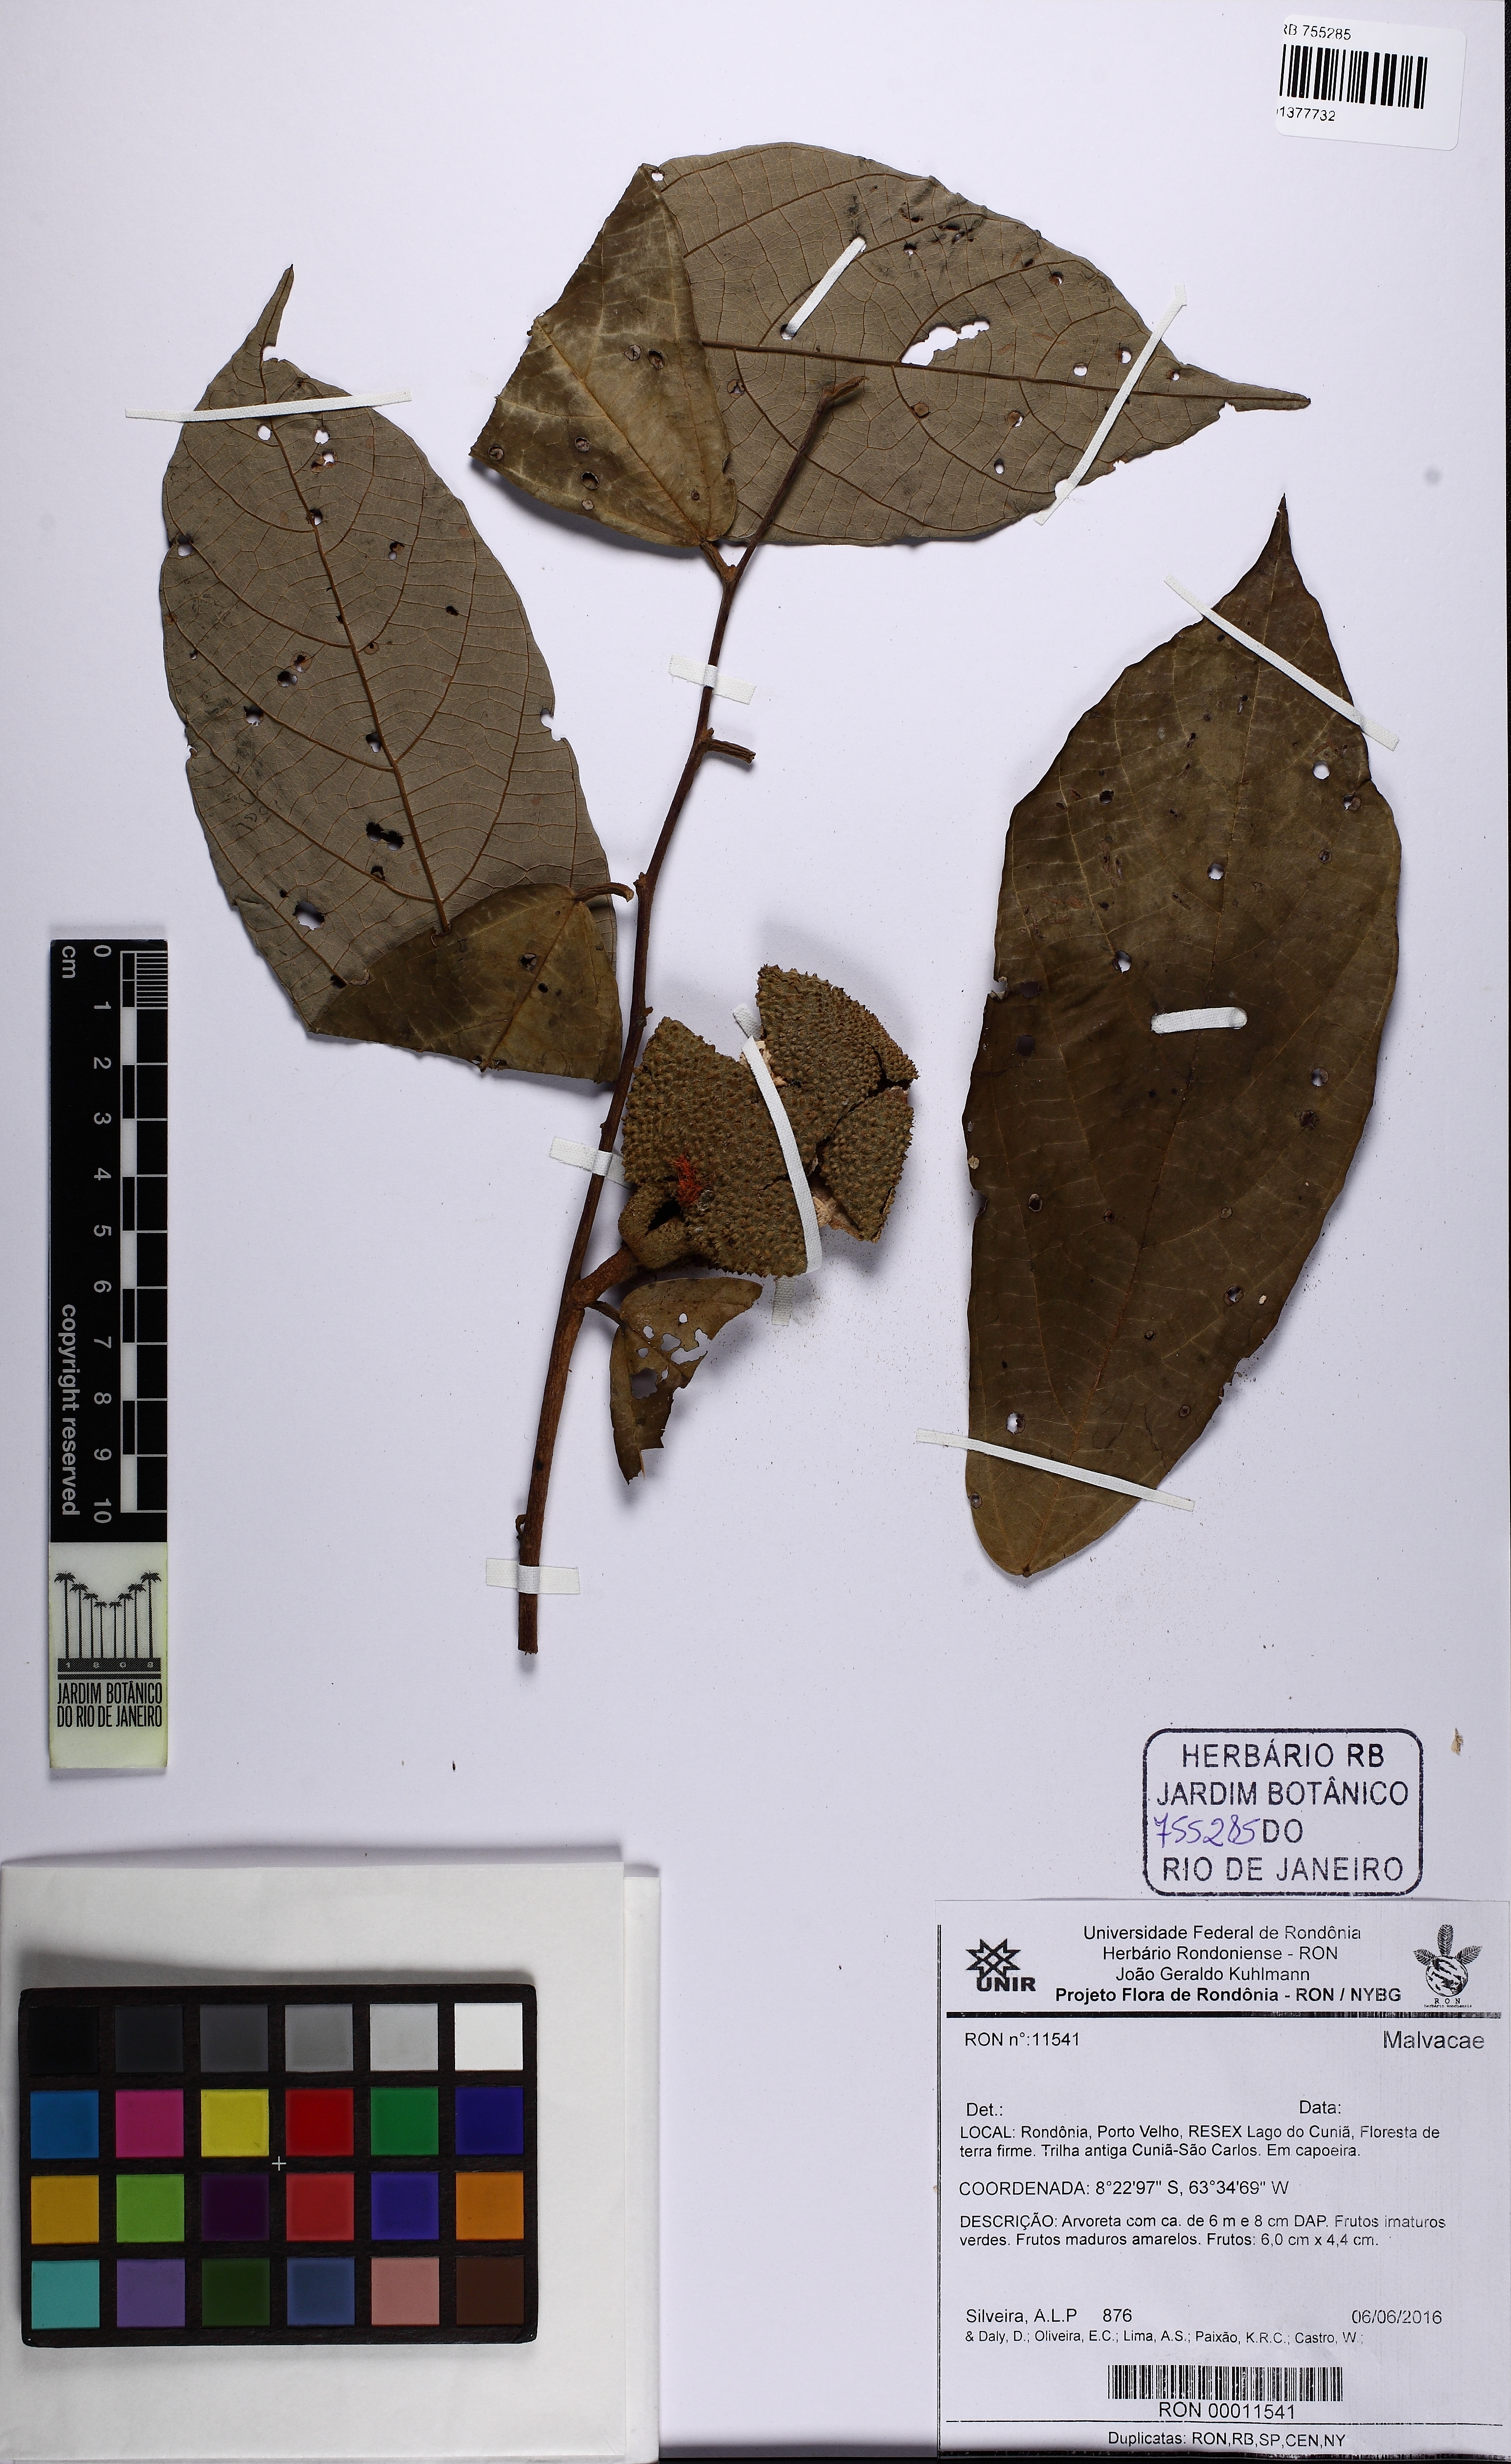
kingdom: Plantae
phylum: Tracheophyta
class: Magnoliopsida
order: Malvales
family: Malvaceae
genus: Theobroma
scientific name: Theobroma obovatum
